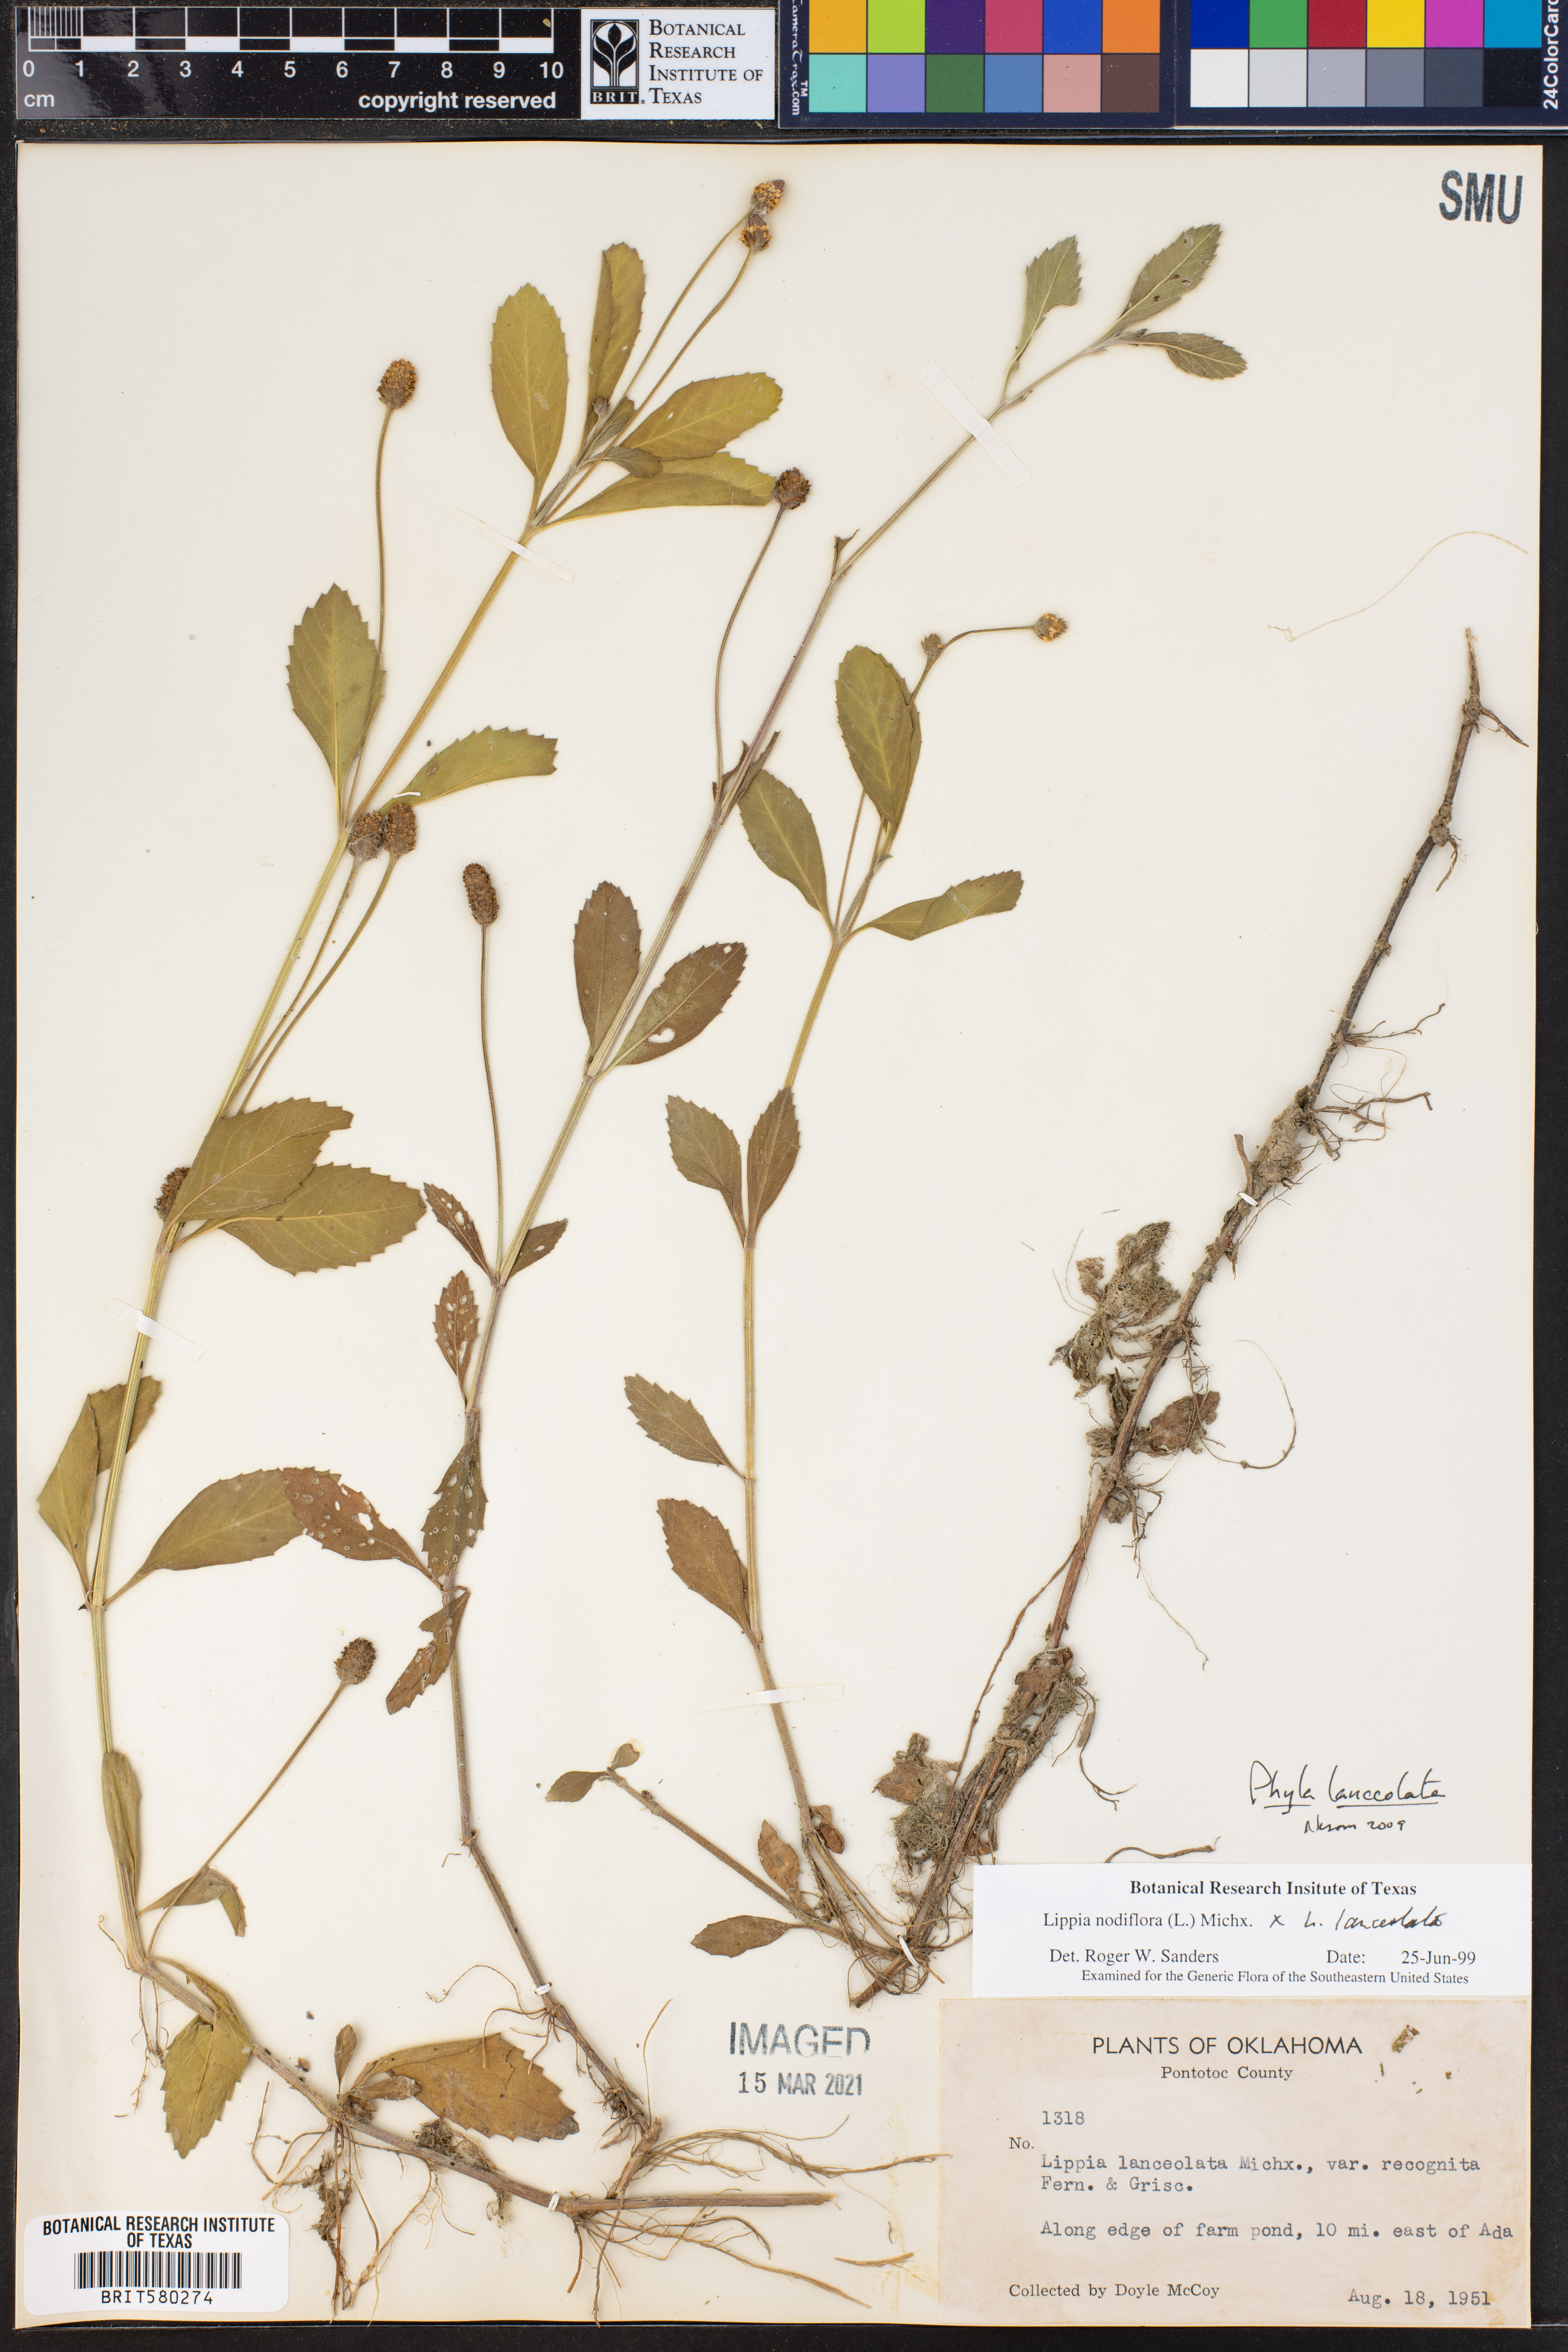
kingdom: Plantae
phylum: Tracheophyta
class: Magnoliopsida
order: Lamiales
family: Verbenaceae
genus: Phyla
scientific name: Phyla lanceolata
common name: Northern fogfruit
